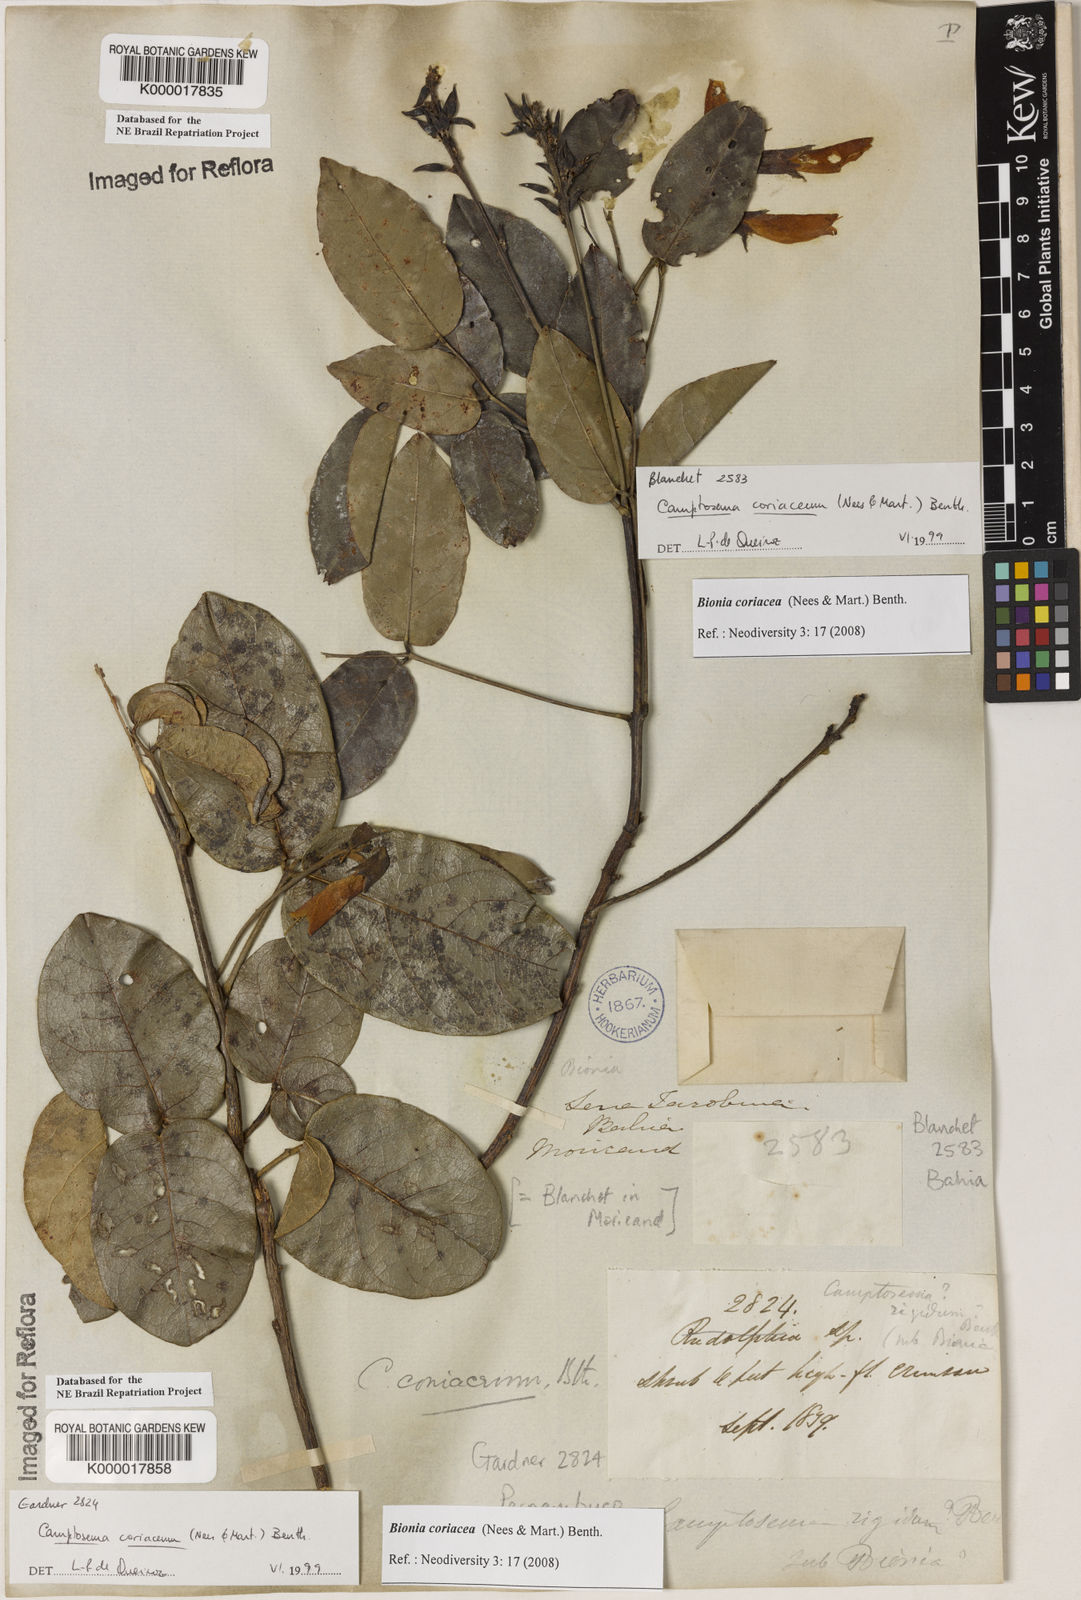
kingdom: Plantae
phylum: Tracheophyta
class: Magnoliopsida
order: Fabales
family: Fabaceae
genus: Camptosema
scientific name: Camptosema coriaceum
